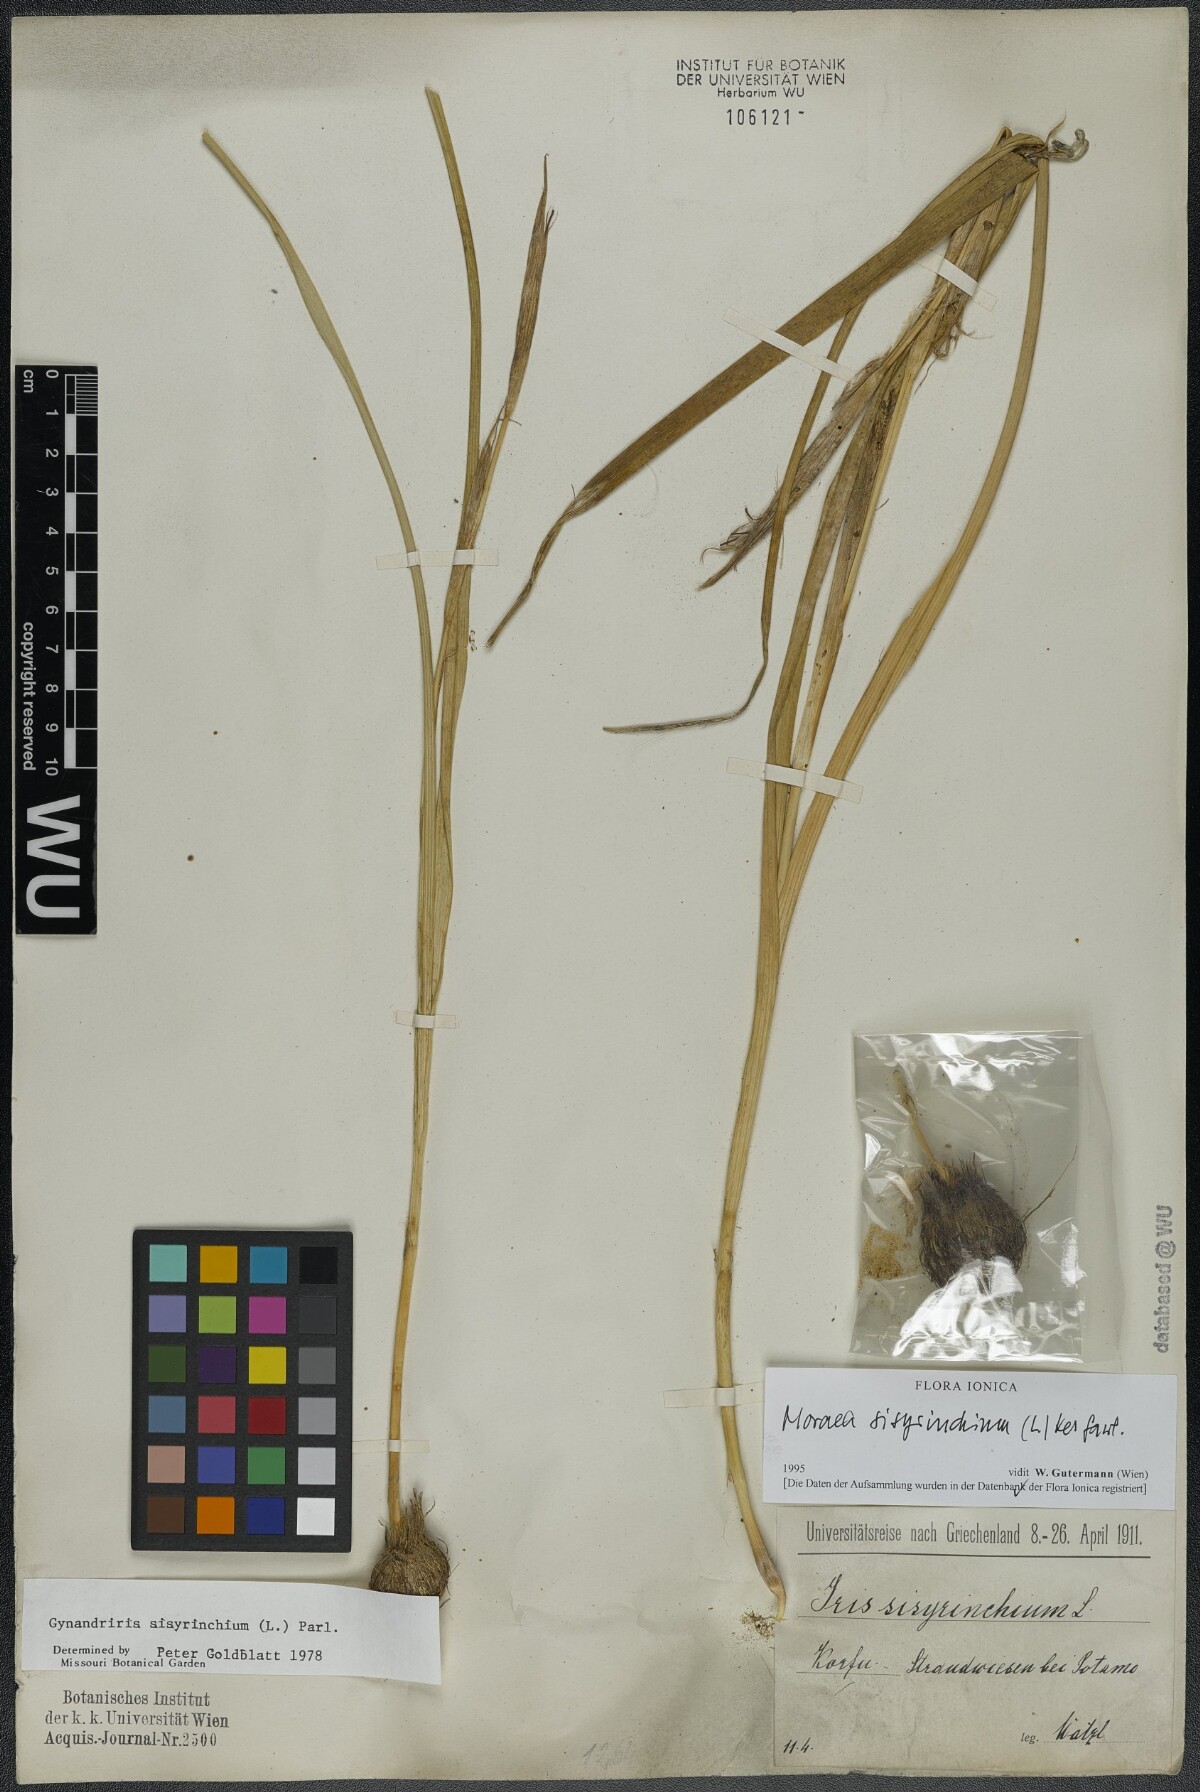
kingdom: Plantae
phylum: Tracheophyta
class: Liliopsida
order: Asparagales
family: Iridaceae
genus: Moraea
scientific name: Moraea sisyrinchium
